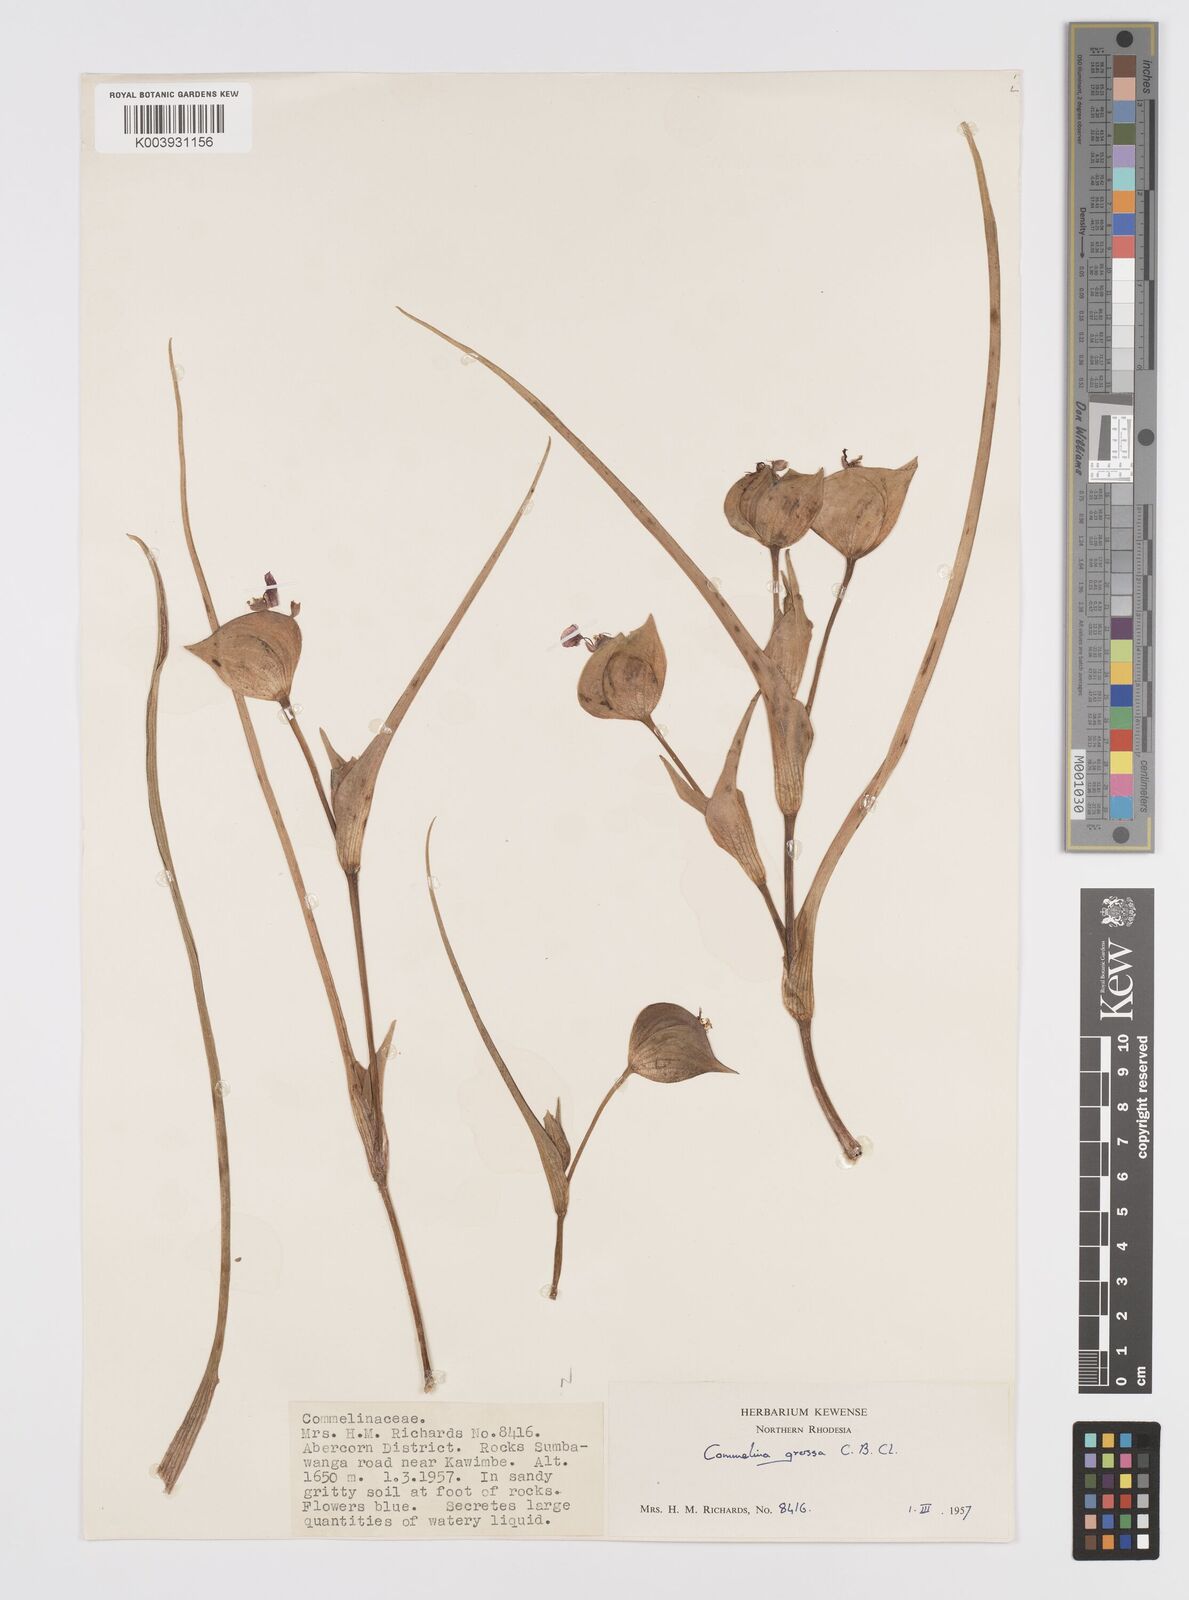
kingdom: Plantae
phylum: Tracheophyta
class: Liliopsida
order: Commelinales
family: Commelinaceae
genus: Commelina
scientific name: Commelina grossa
